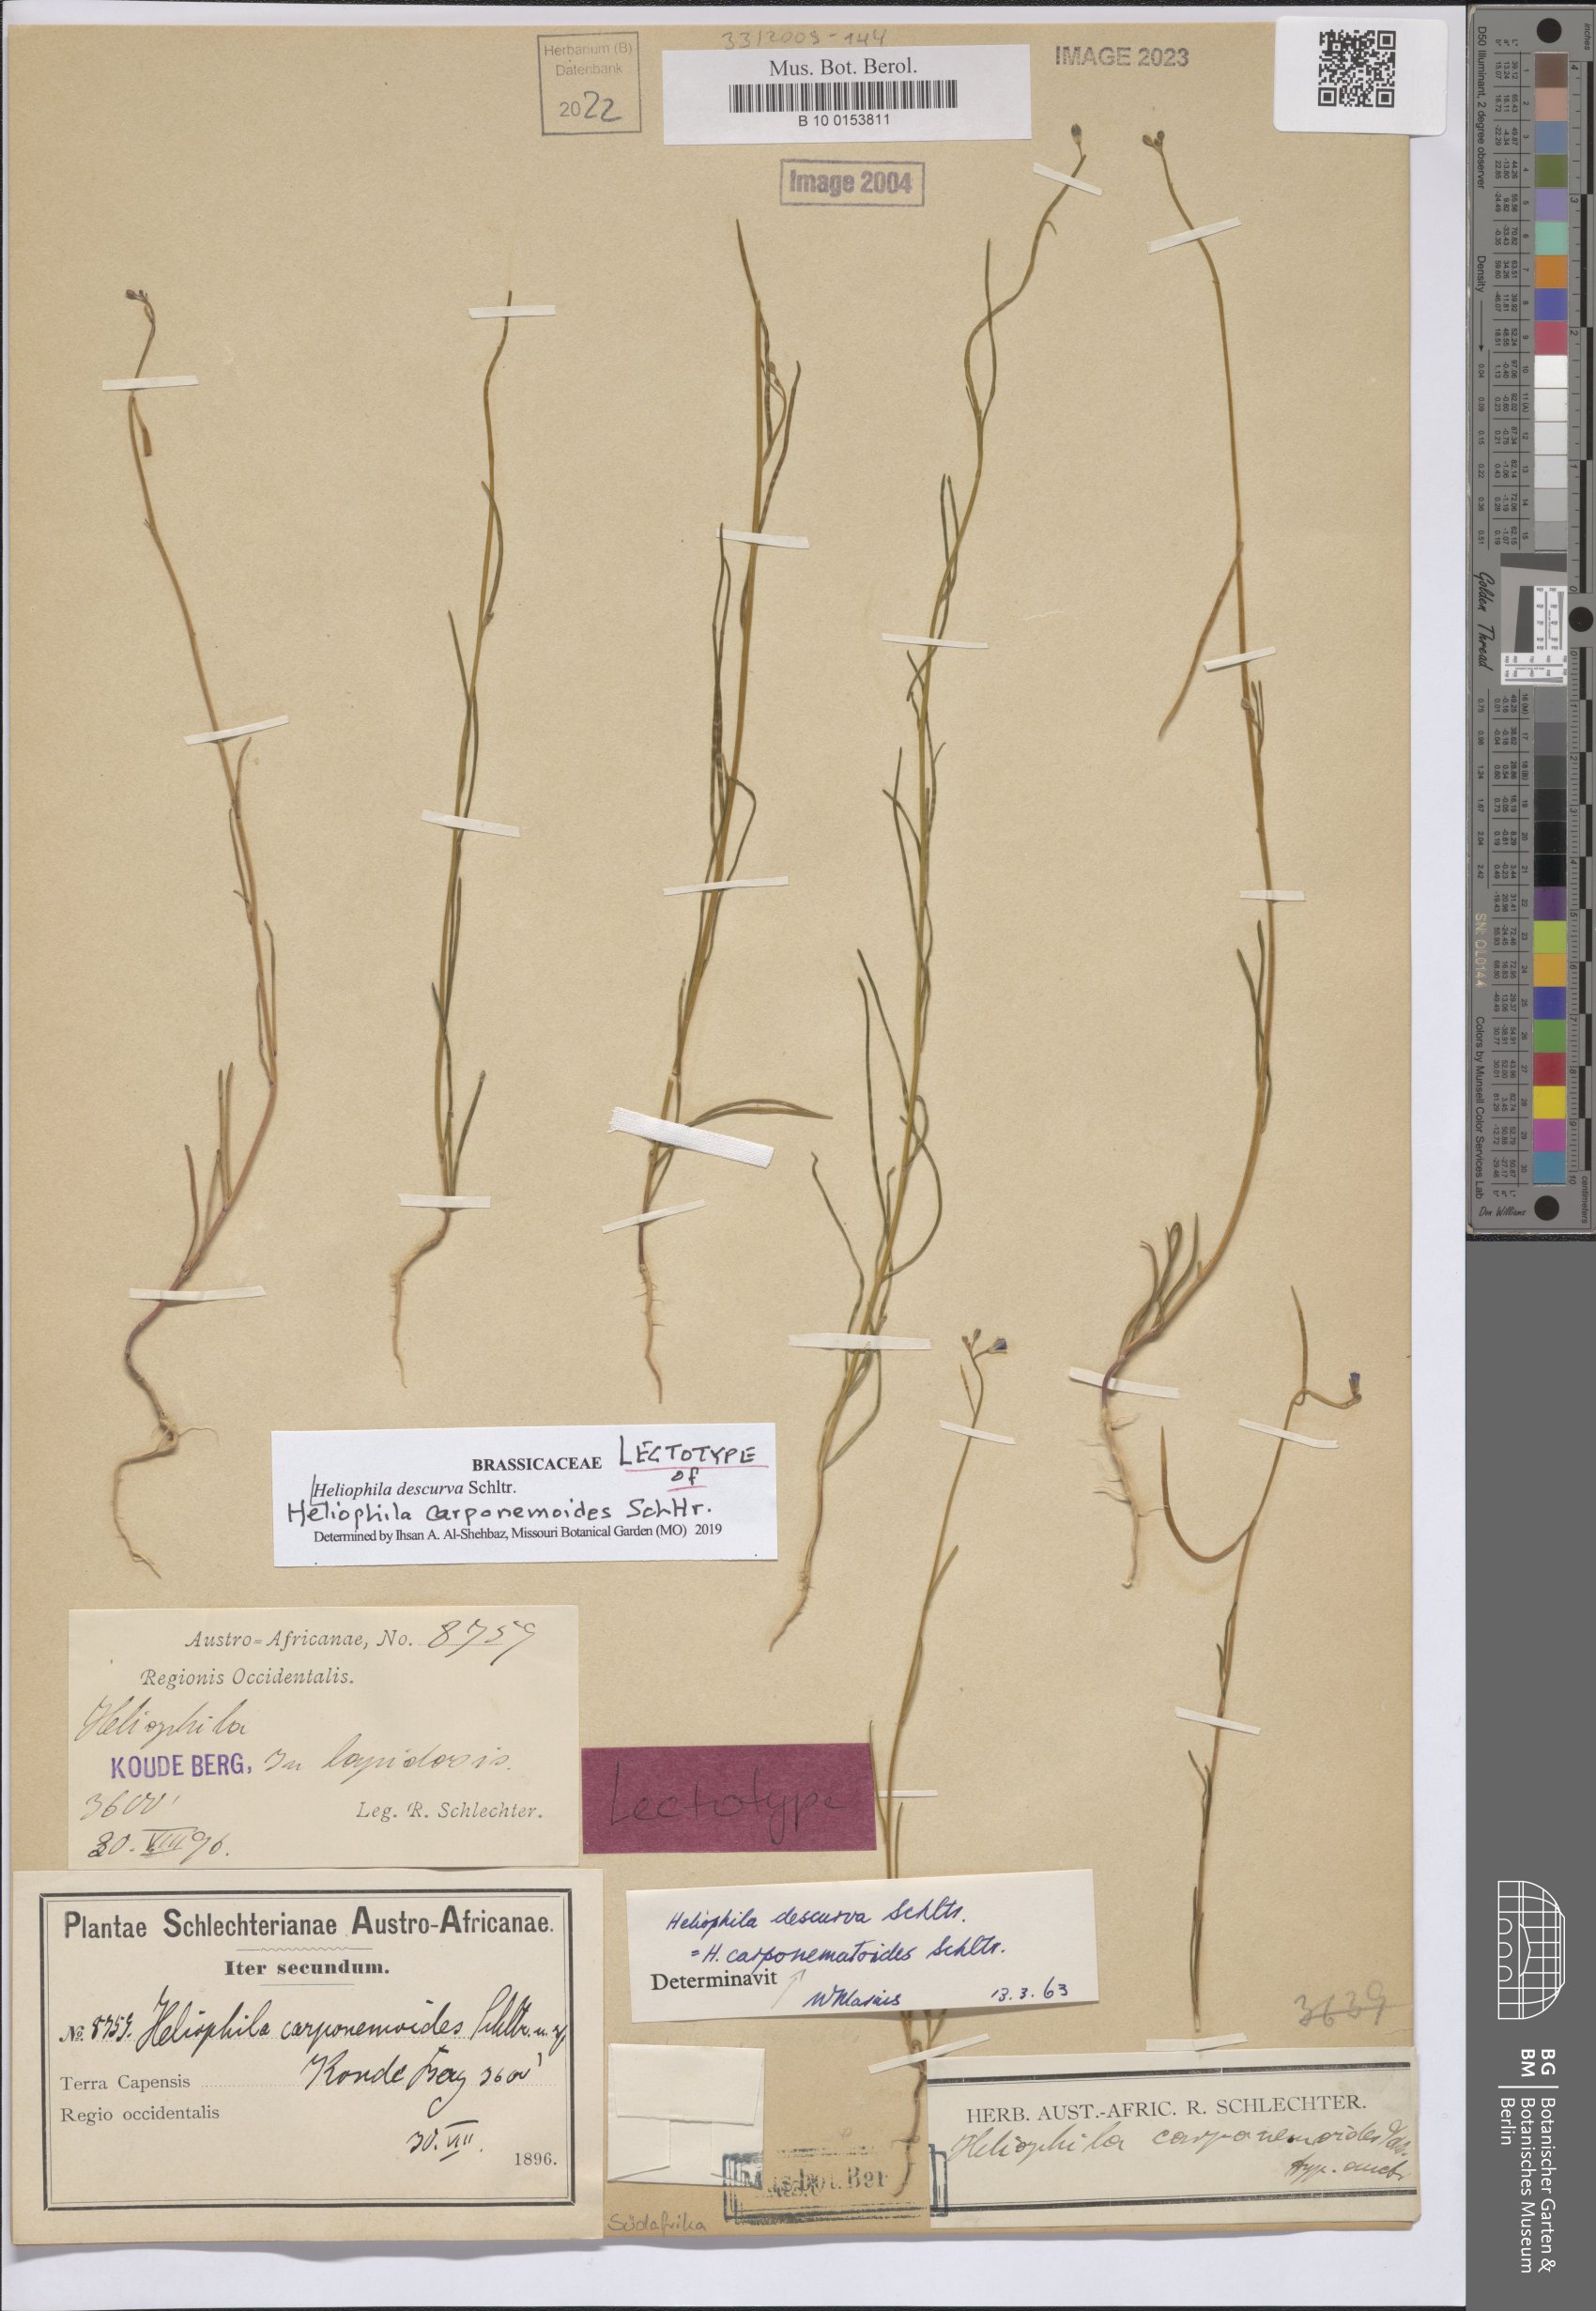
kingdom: Plantae
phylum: Tracheophyta
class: Magnoliopsida
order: Brassicales
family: Brassicaceae
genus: Heliophila
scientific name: Heliophila descurva
